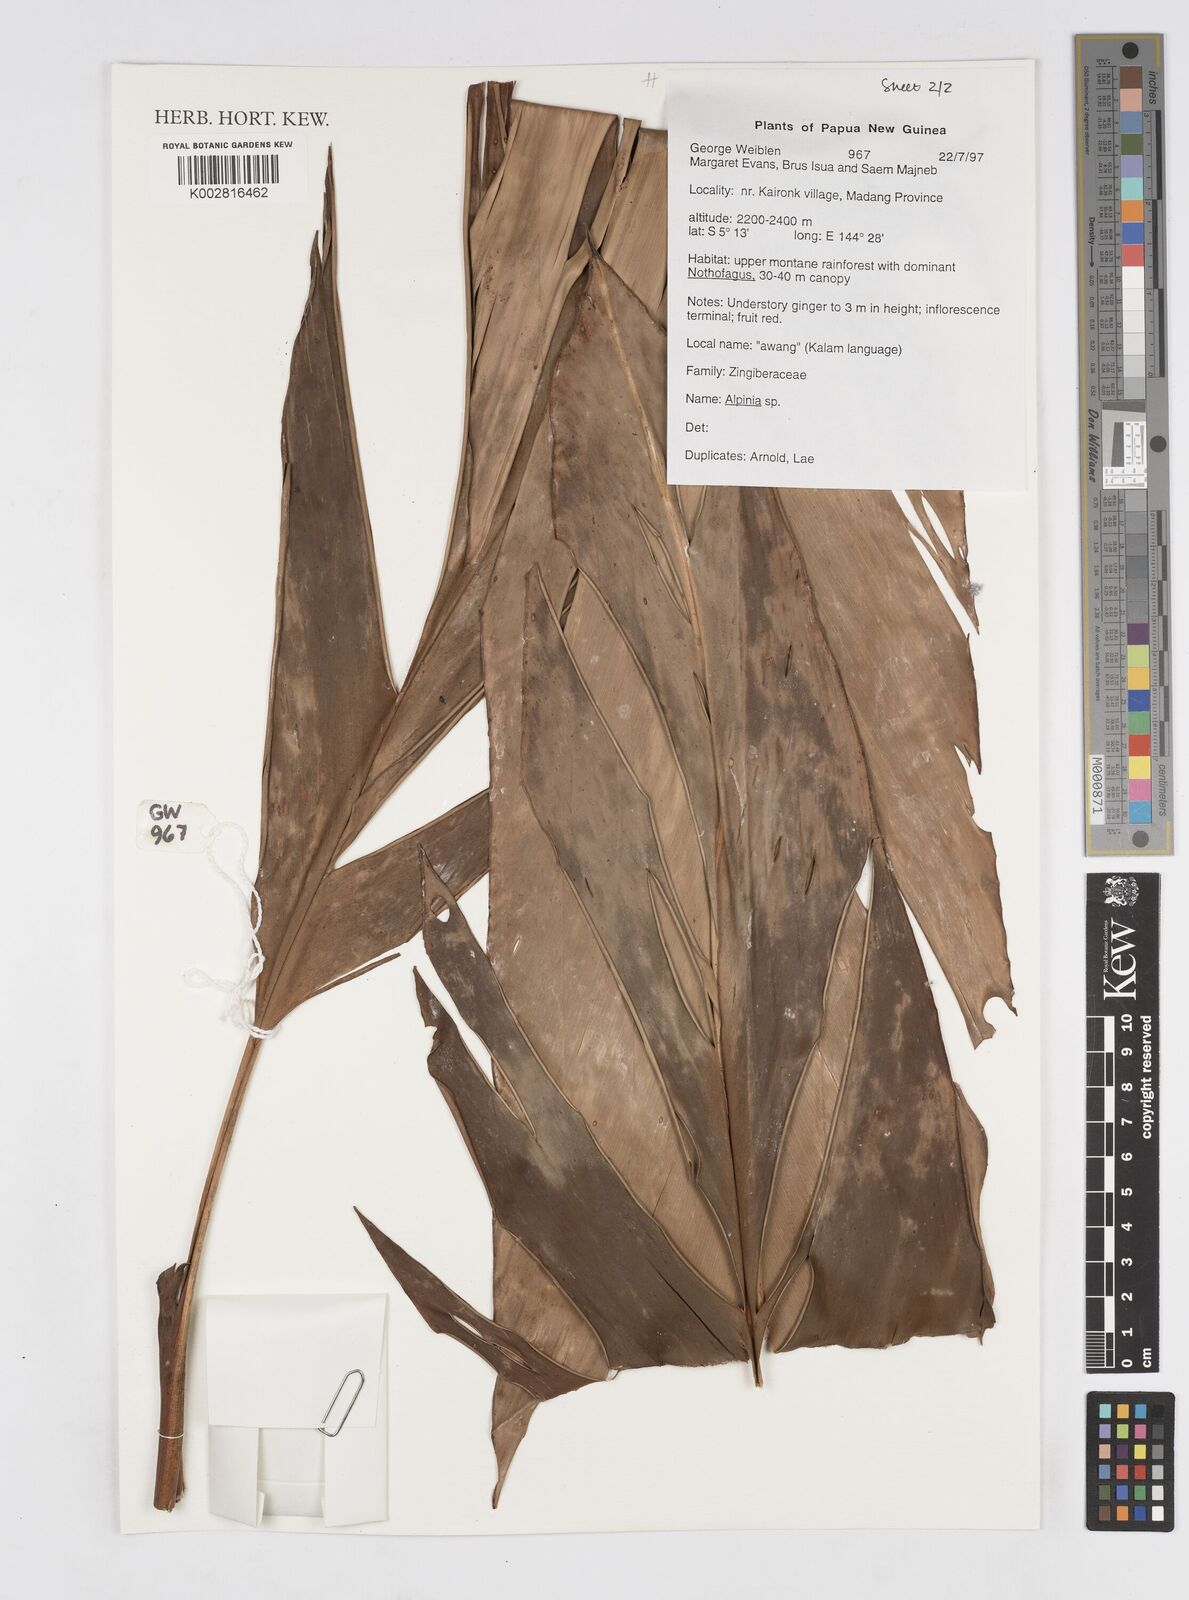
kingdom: Plantae
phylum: Tracheophyta
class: Liliopsida
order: Zingiberales
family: Zingiberaceae
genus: Alpinia
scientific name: Alpinia
